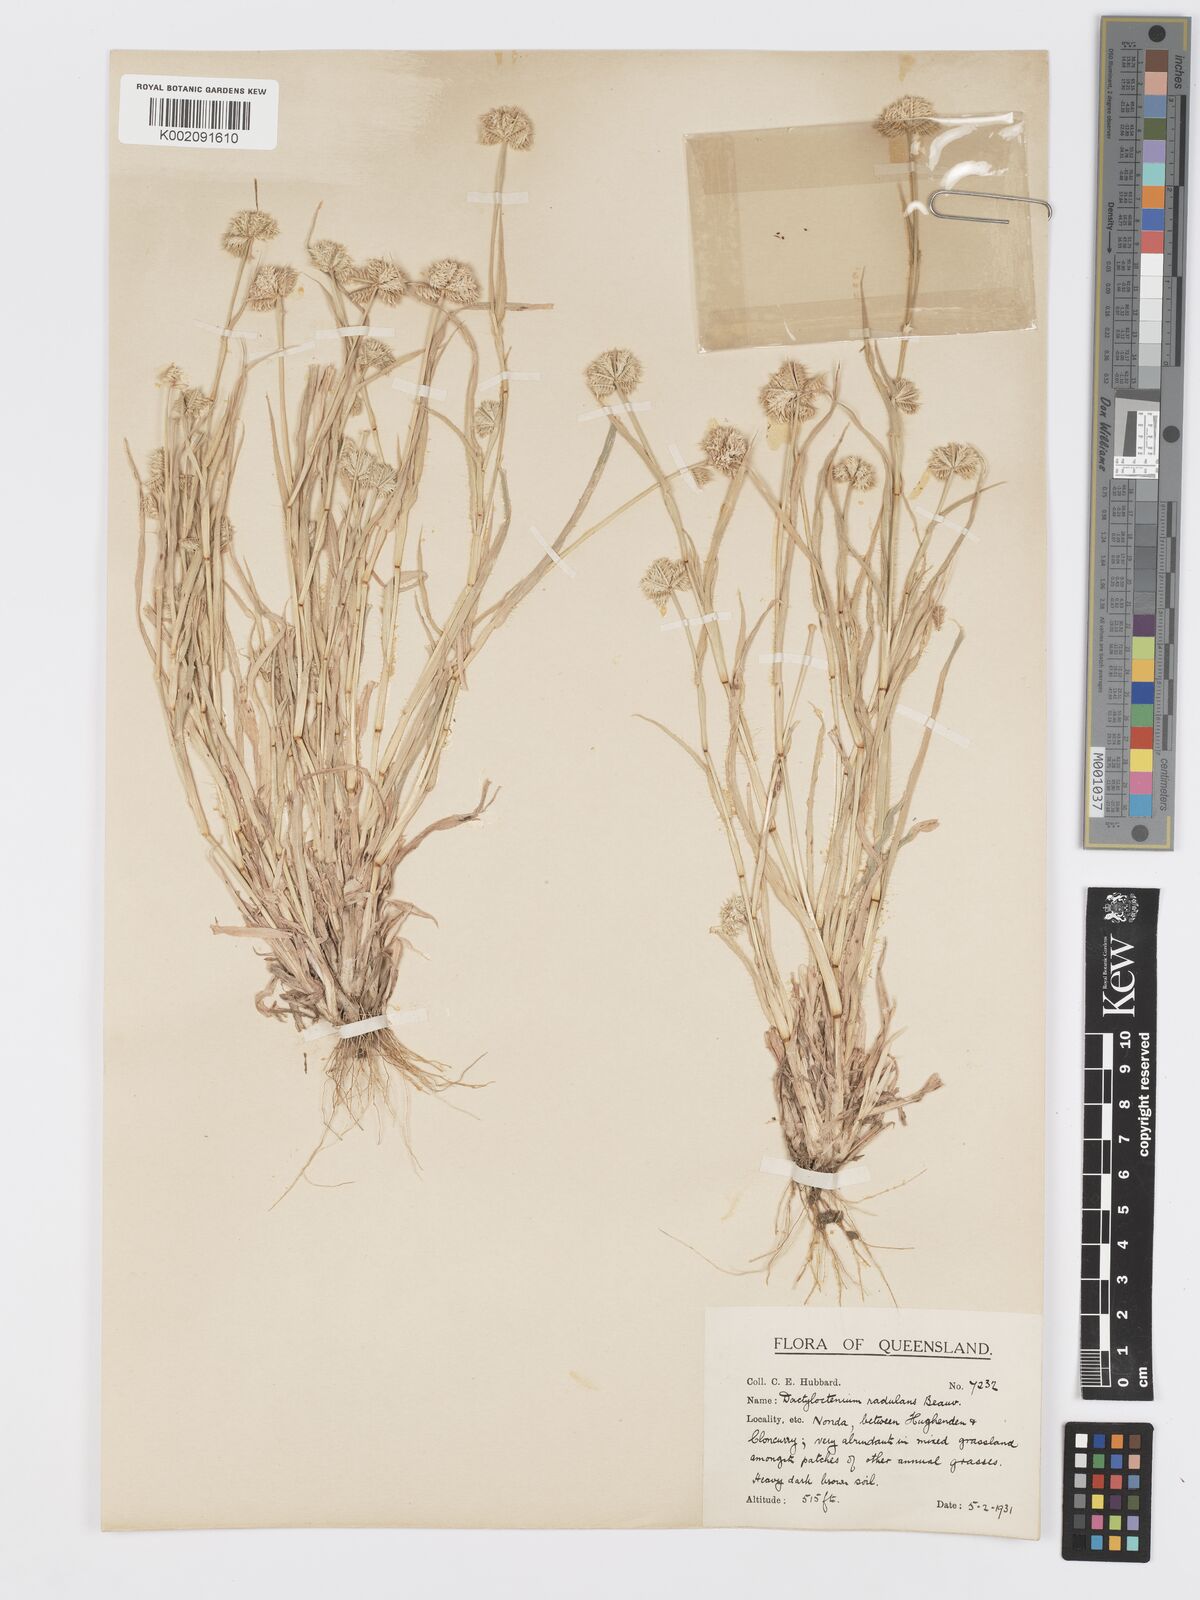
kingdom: Plantae
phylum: Tracheophyta
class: Liliopsida
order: Poales
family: Poaceae
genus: Dactyloctenium
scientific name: Dactyloctenium radulans
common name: Button-grass
